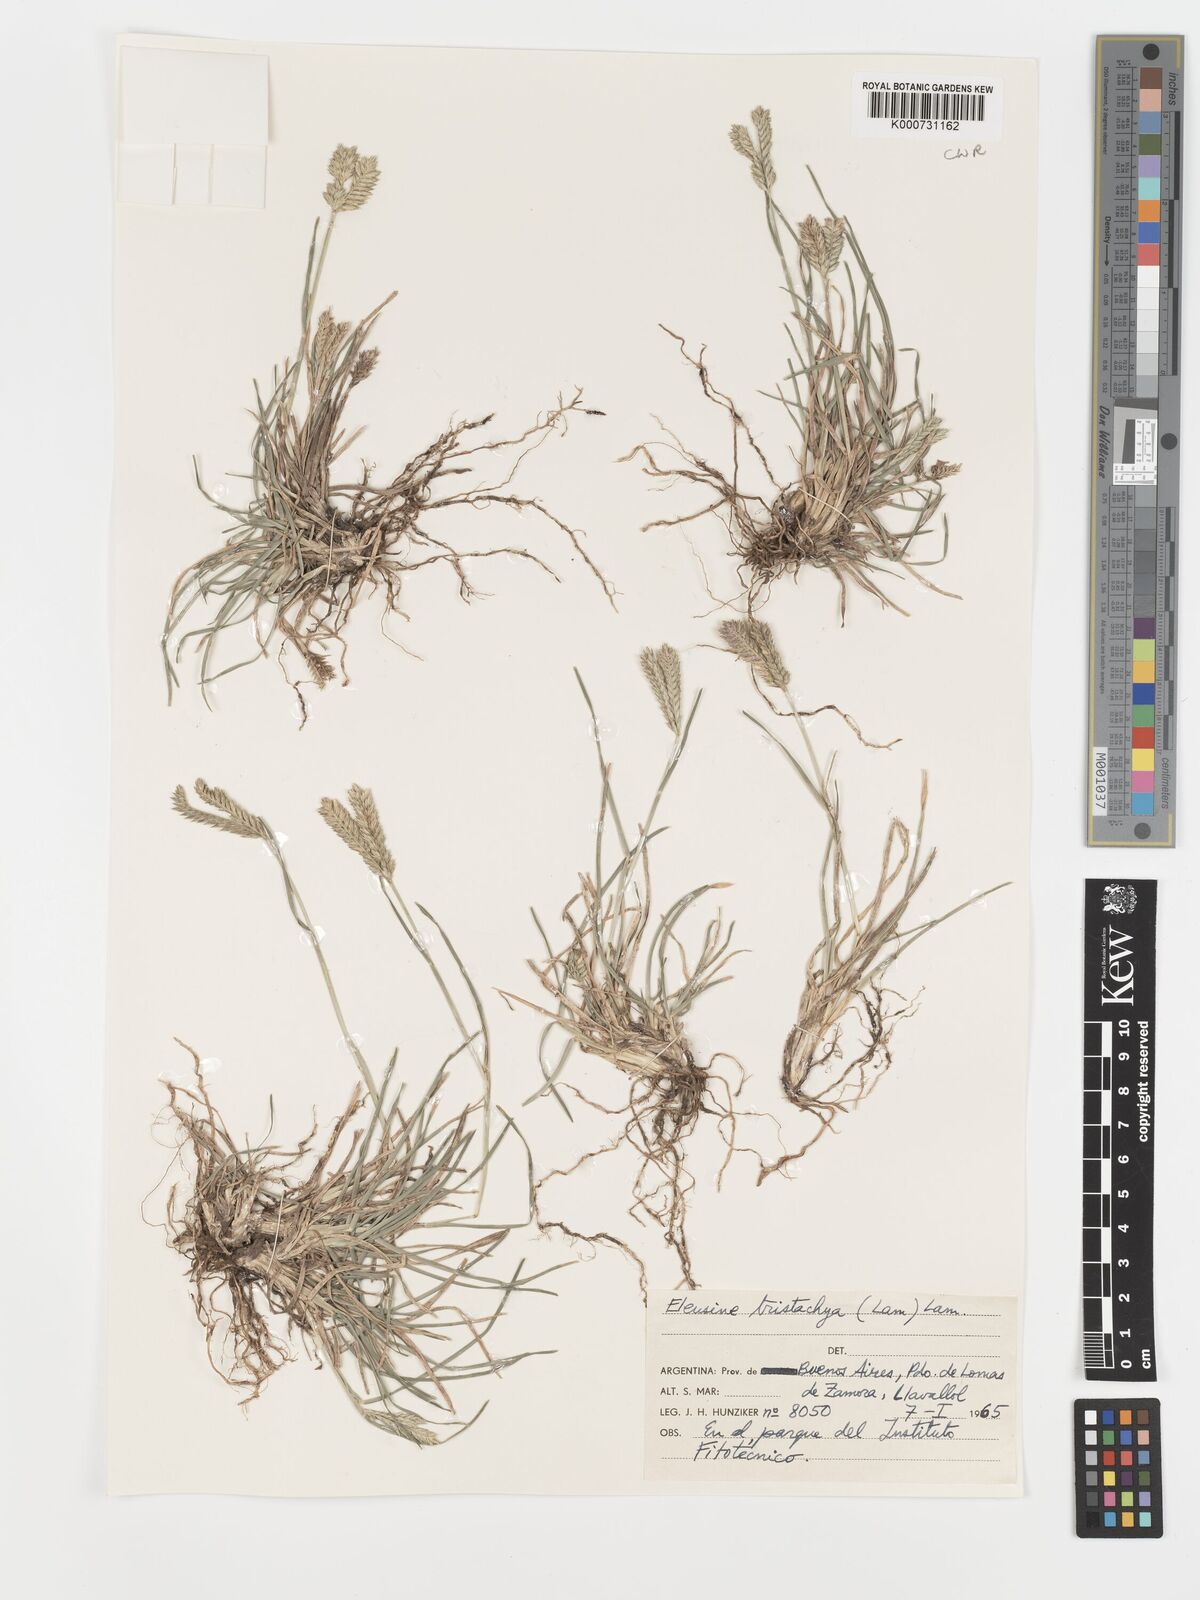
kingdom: Plantae
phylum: Tracheophyta
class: Liliopsida
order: Poales
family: Poaceae
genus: Eleusine
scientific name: Eleusine tristachya
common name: American yard-grass
